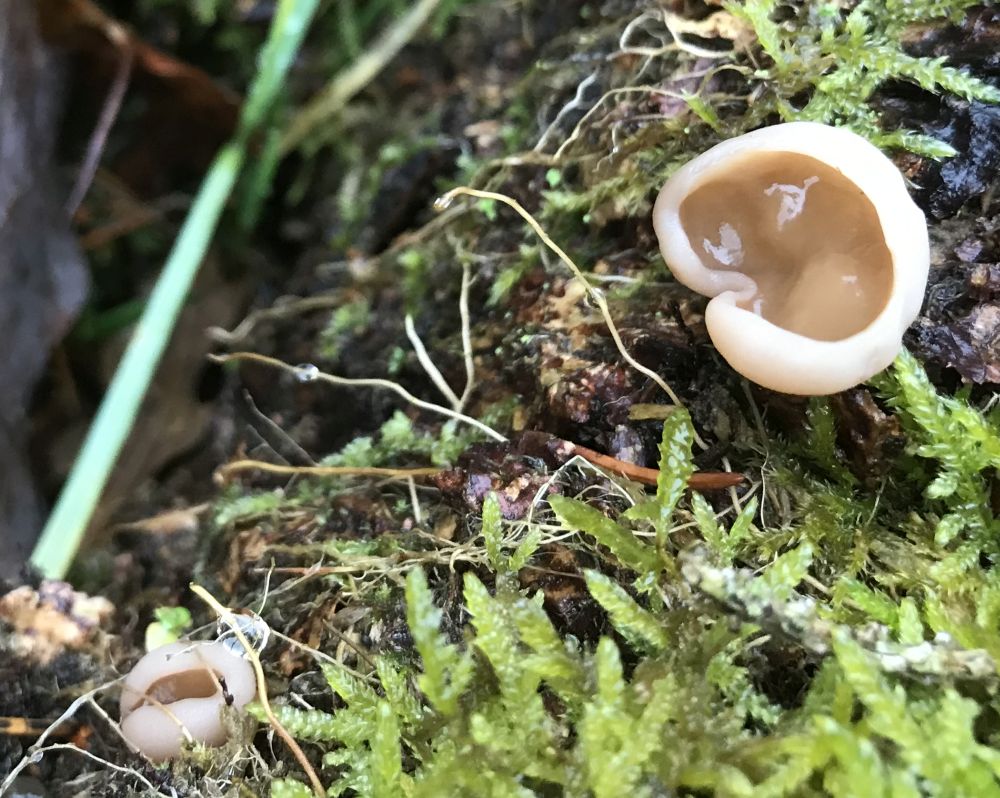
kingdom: Fungi
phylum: Ascomycota
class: Pezizomycetes
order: Pezizales
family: Discinaceae
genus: Discina
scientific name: Discina ancilis
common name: udbredt stenmorkel
